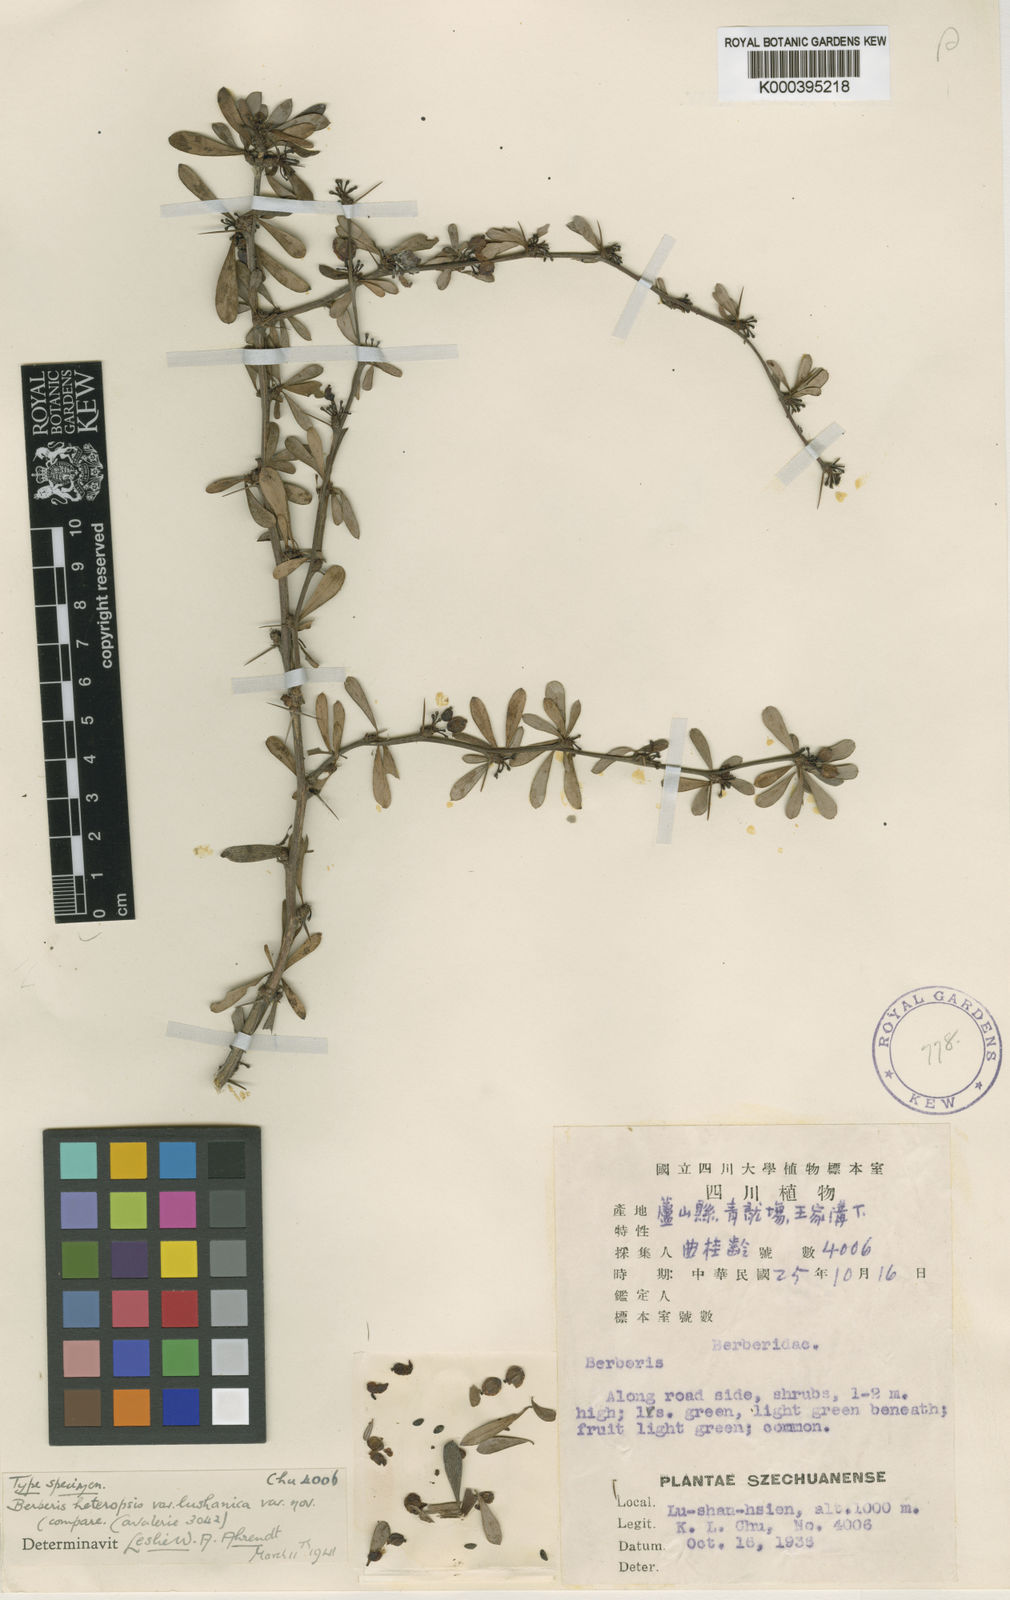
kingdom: Plantae
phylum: Tracheophyta
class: Magnoliopsida
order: Ranunculales
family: Berberidaceae
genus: Berberis
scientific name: Berberis wilsoniae
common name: Mrs wilson's barberry
